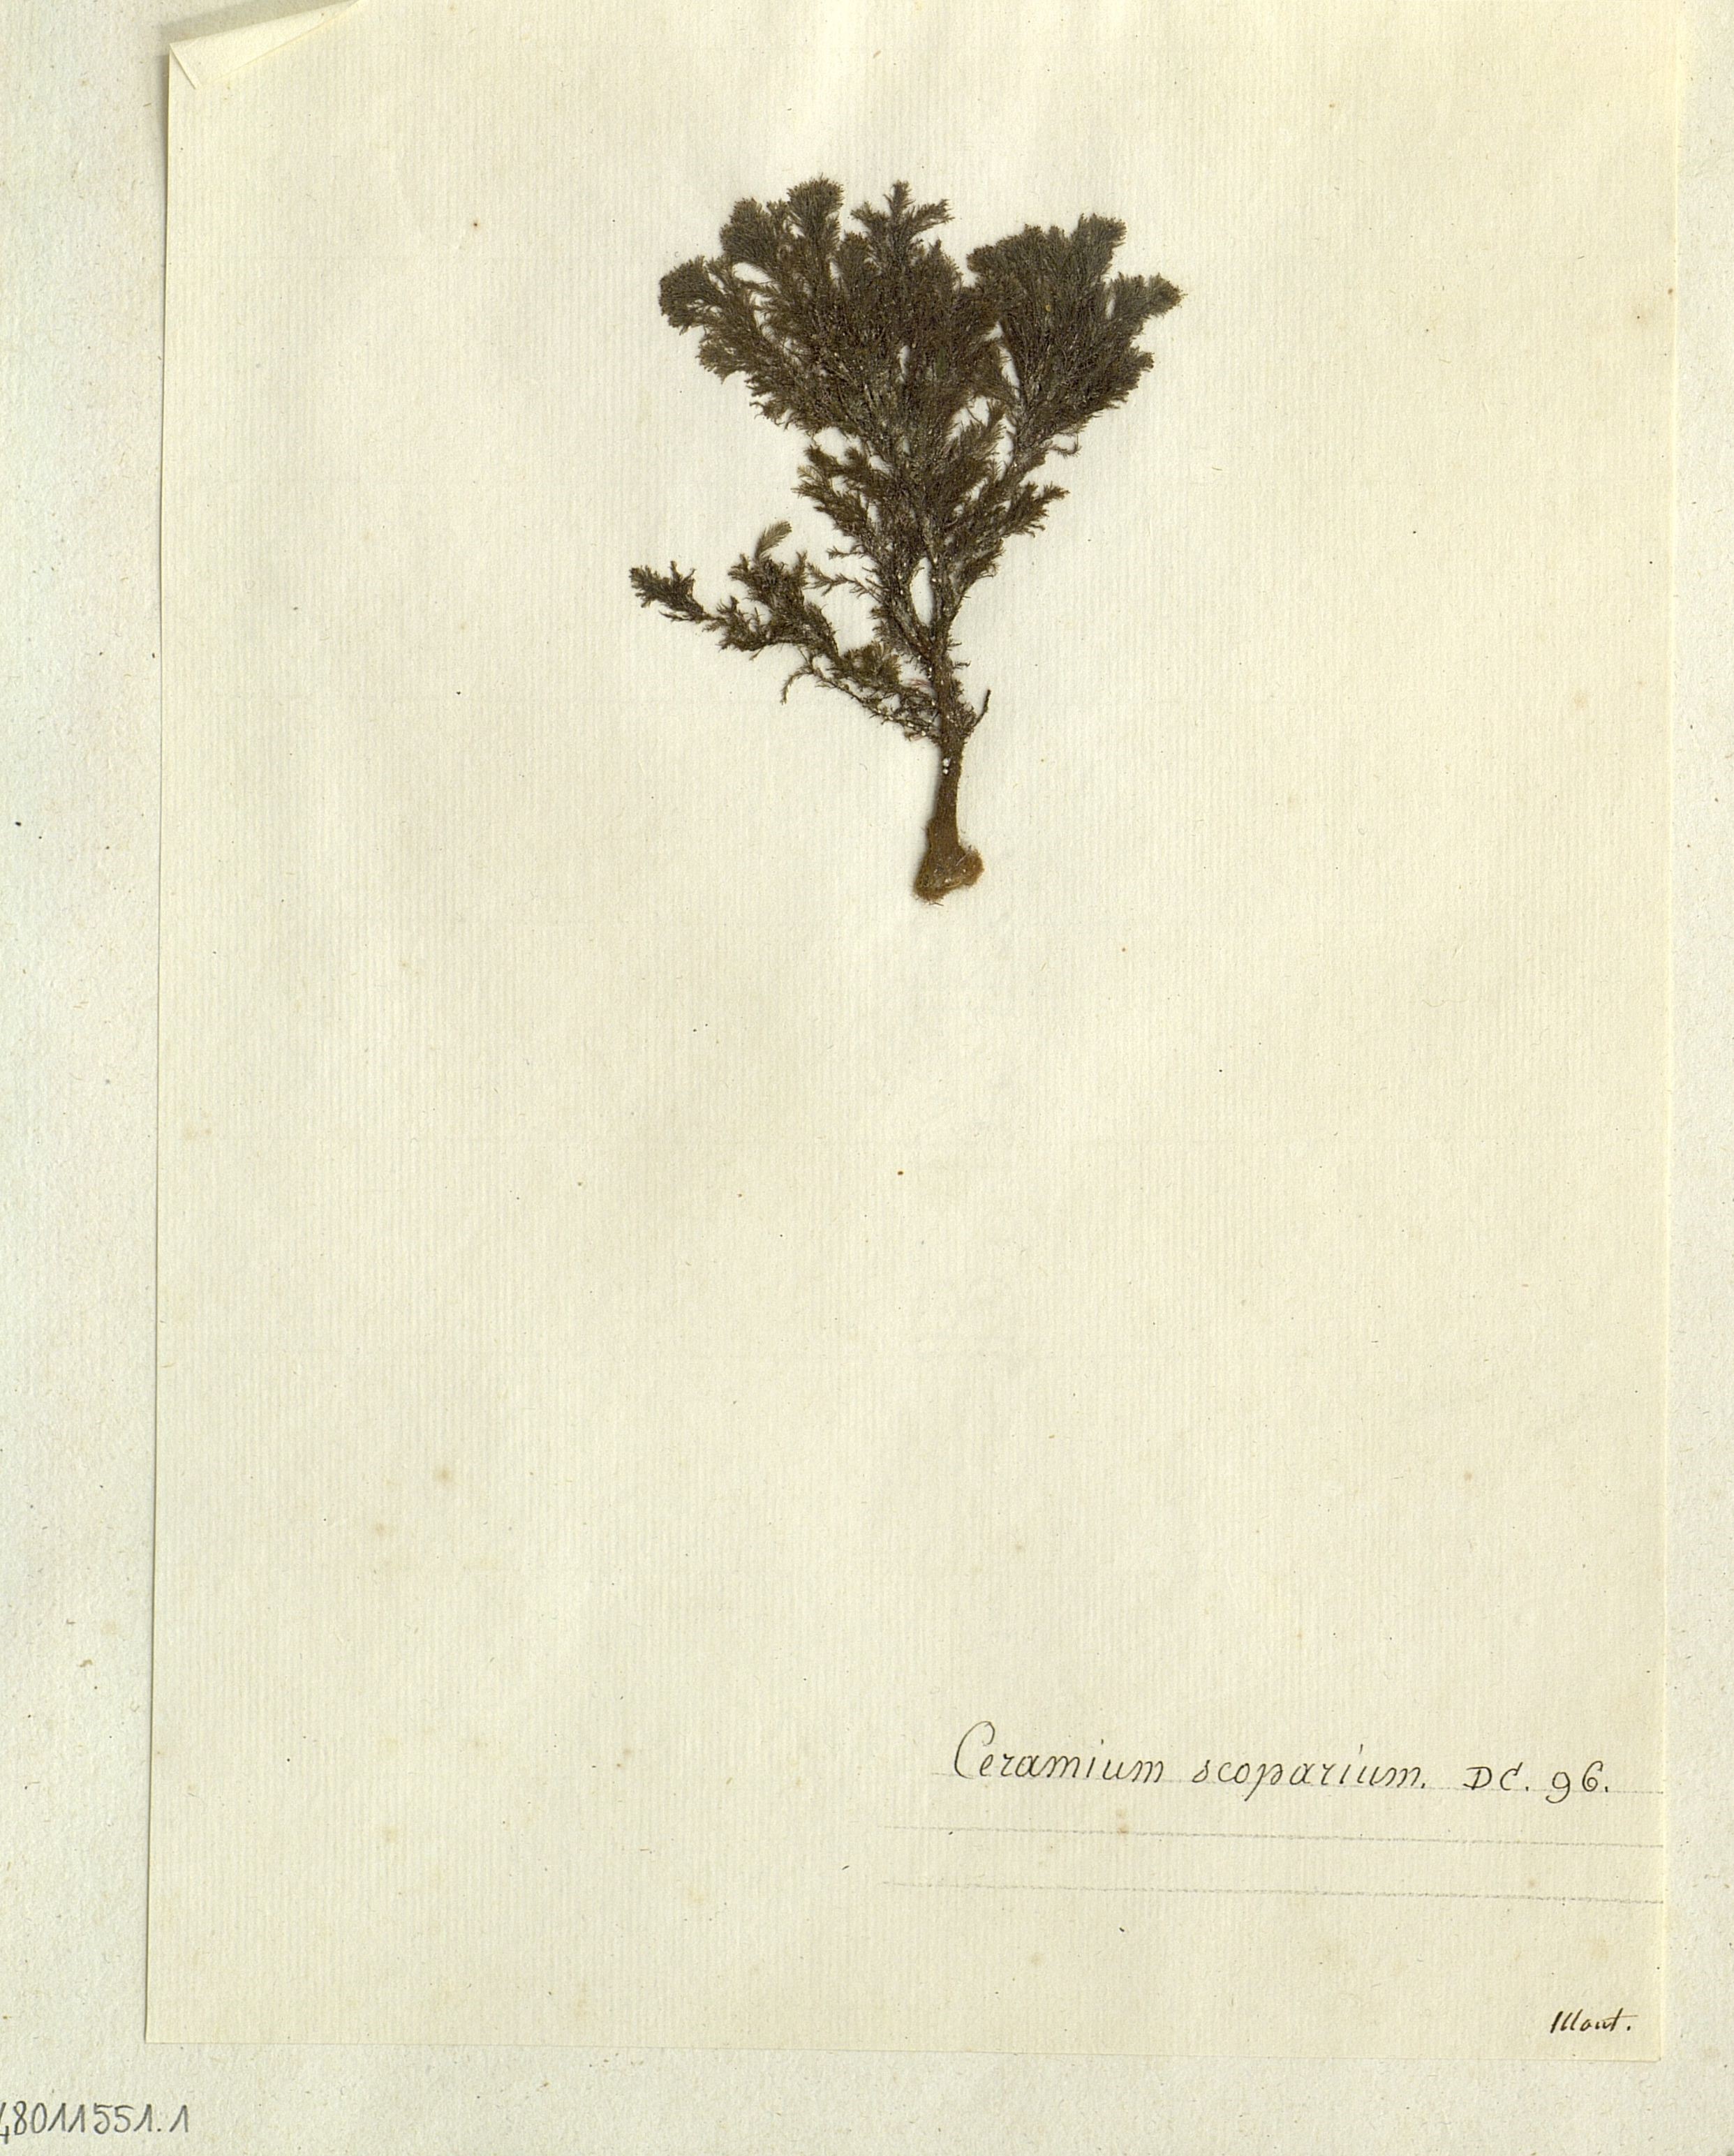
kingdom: Plantae
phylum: Rhodophyta
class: Florideophyceae
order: Ceramiales
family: Ceramiaceae
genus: Ceramium
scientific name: Ceramium
